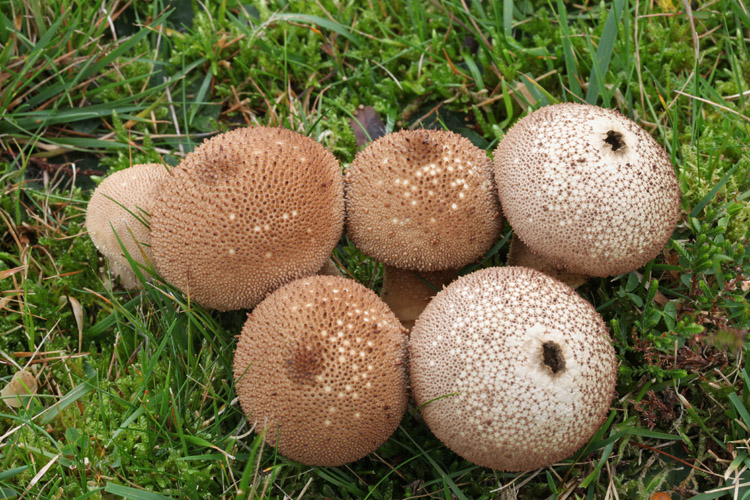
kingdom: Fungi
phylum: Basidiomycota
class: Agaricomycetes
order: Agaricales
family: Lycoperdaceae
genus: Lycoperdon
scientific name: Lycoperdon nigrescens
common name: sortagtig støvbold
